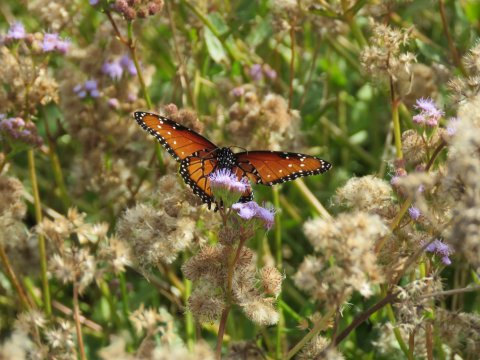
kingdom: Animalia
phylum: Arthropoda
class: Insecta
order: Lepidoptera
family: Nymphalidae
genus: Danaus
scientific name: Danaus gilippus
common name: Queen
